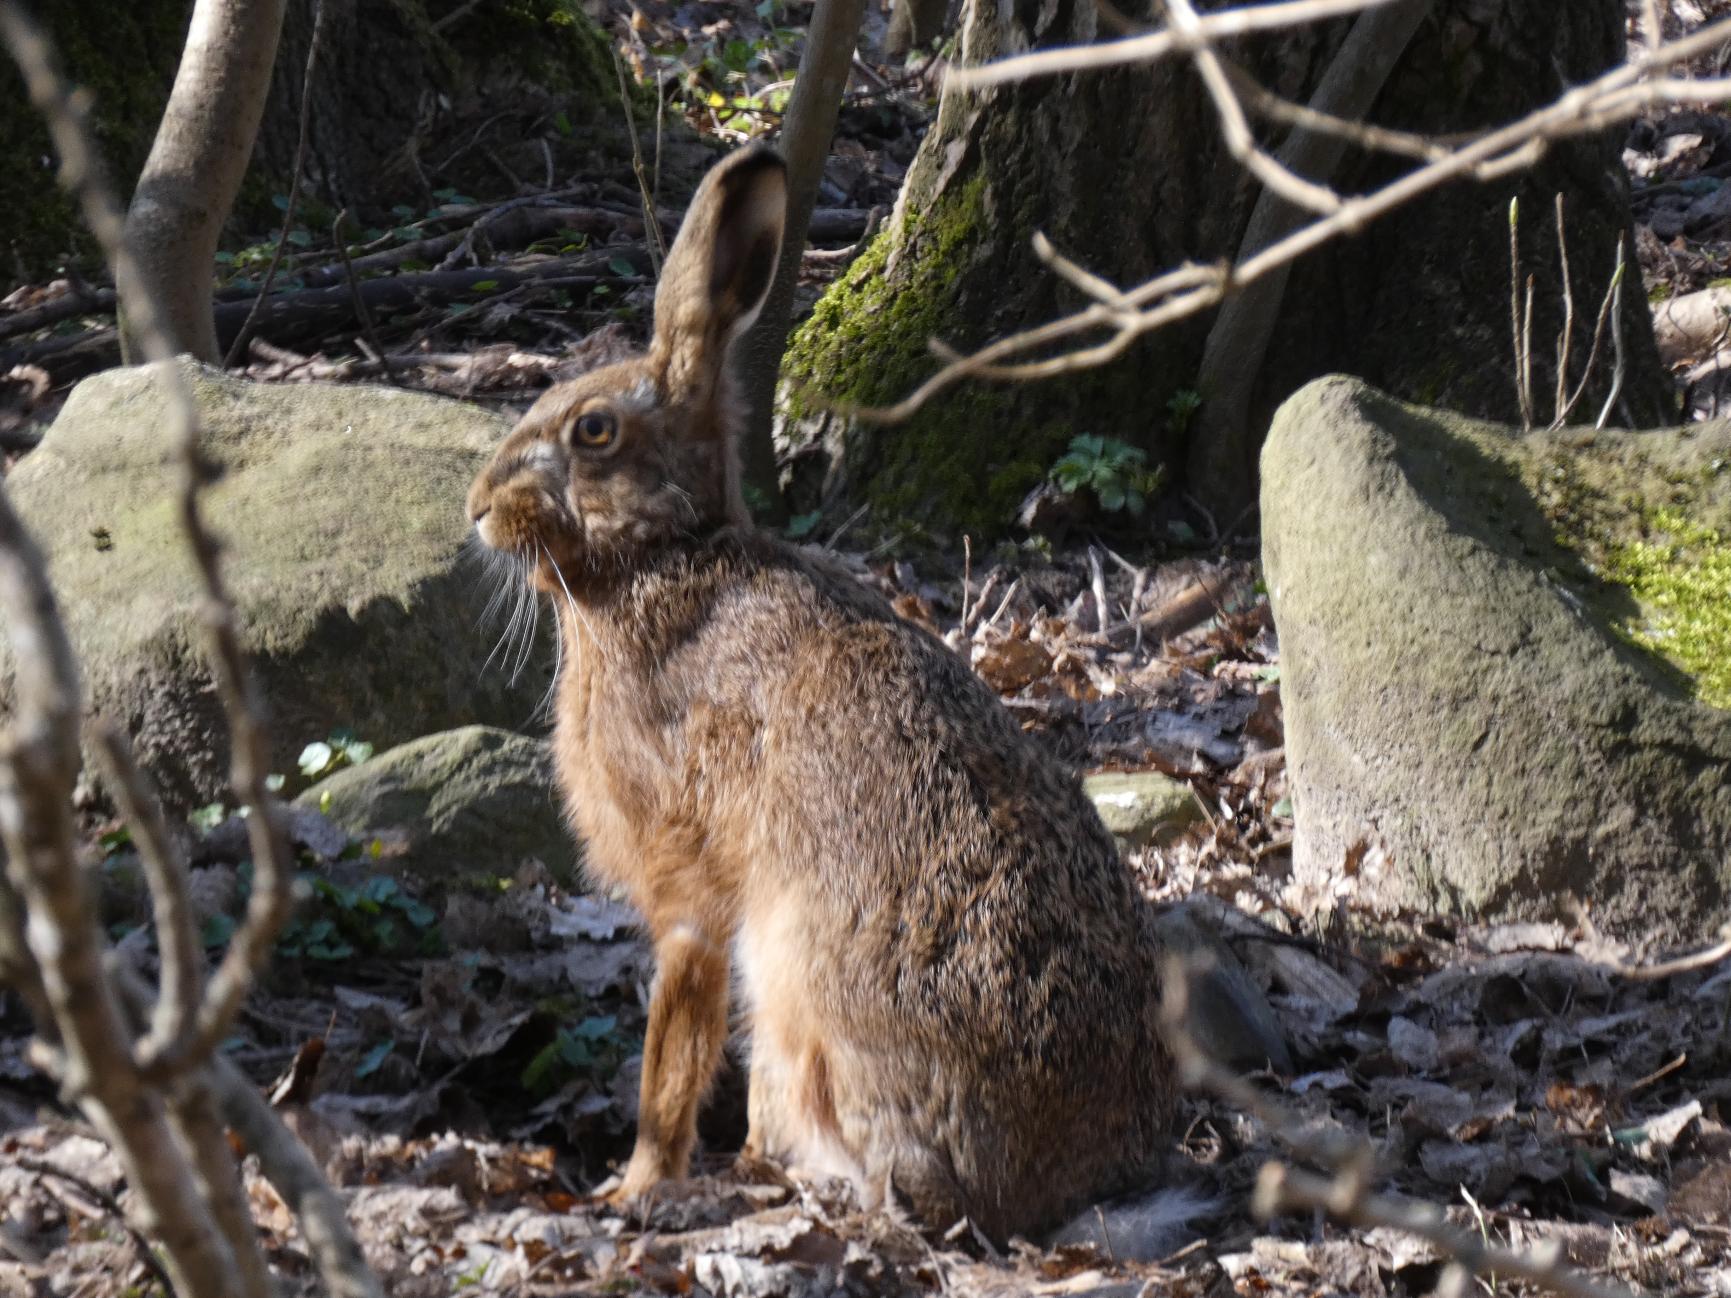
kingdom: Animalia
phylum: Chordata
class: Mammalia
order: Lagomorpha
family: Leporidae
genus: Lepus
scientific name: Lepus europaeus
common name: Hare
